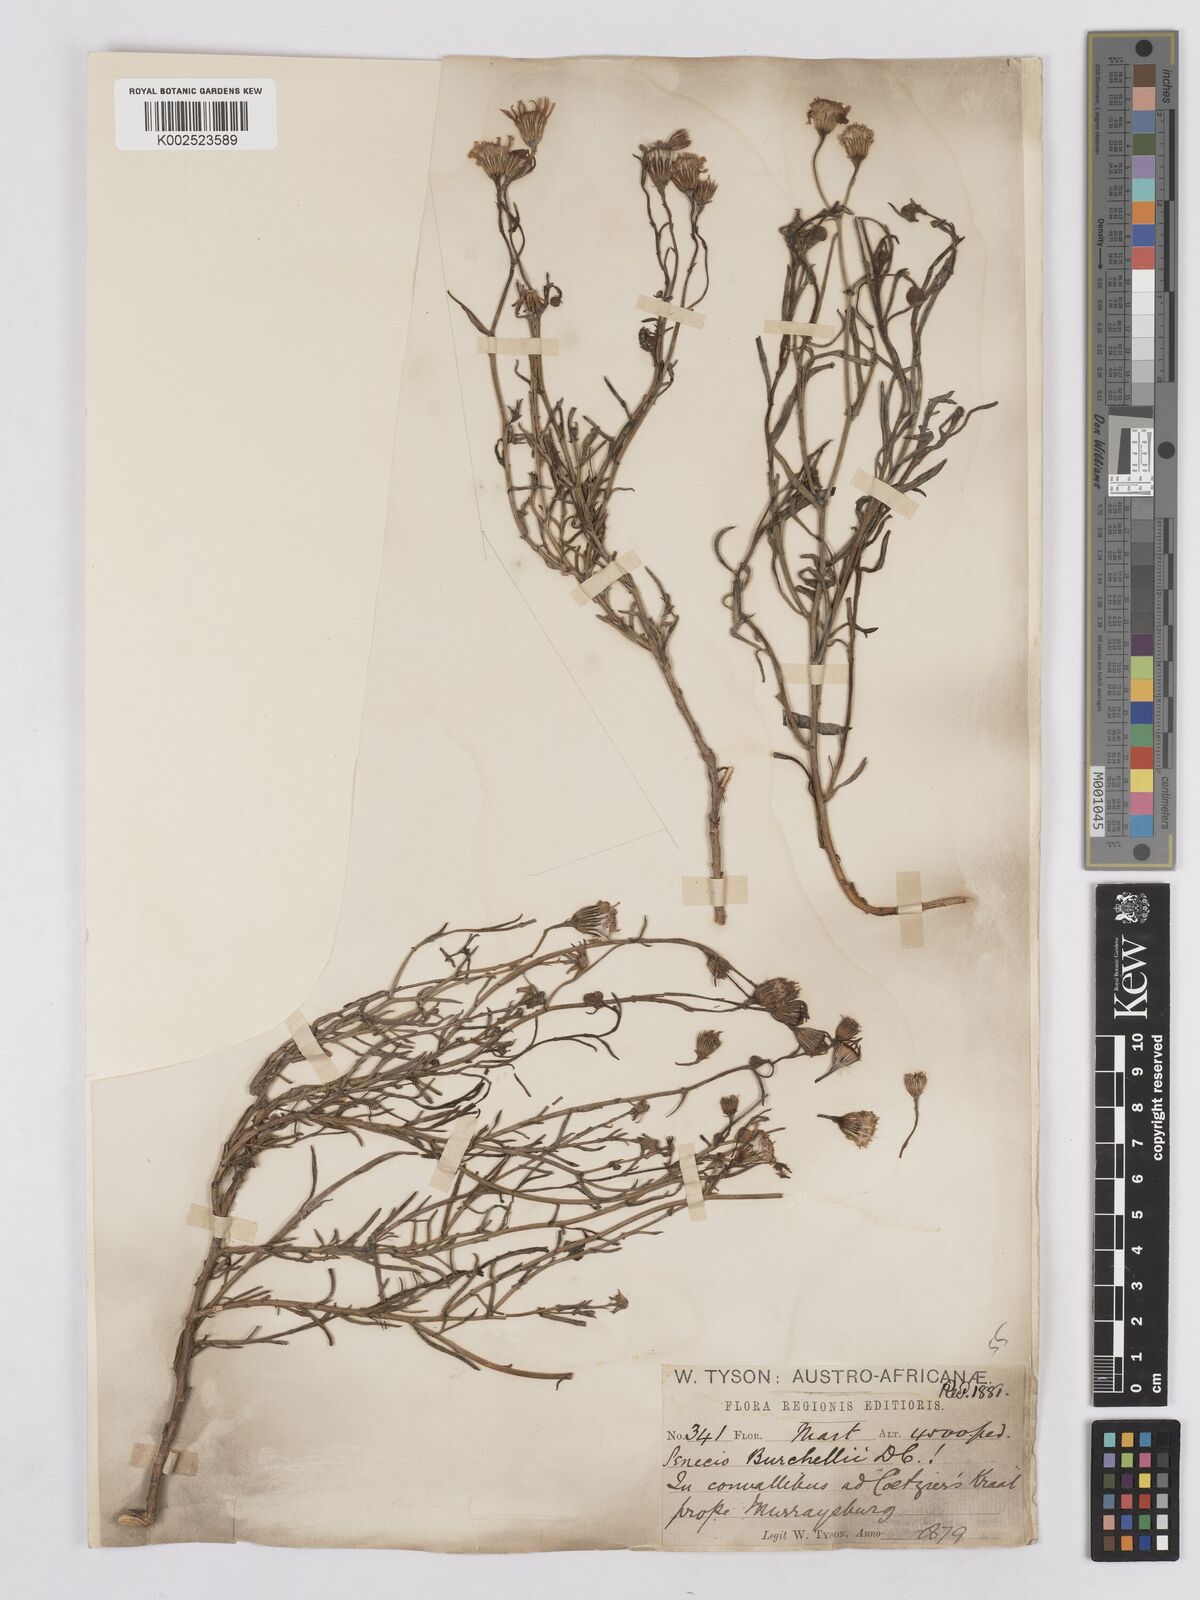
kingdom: Plantae
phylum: Tracheophyta
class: Magnoliopsida
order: Asterales
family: Asteraceae
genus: Senecio
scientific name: Senecio inaequidens
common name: Narrow-leaved ragwort
